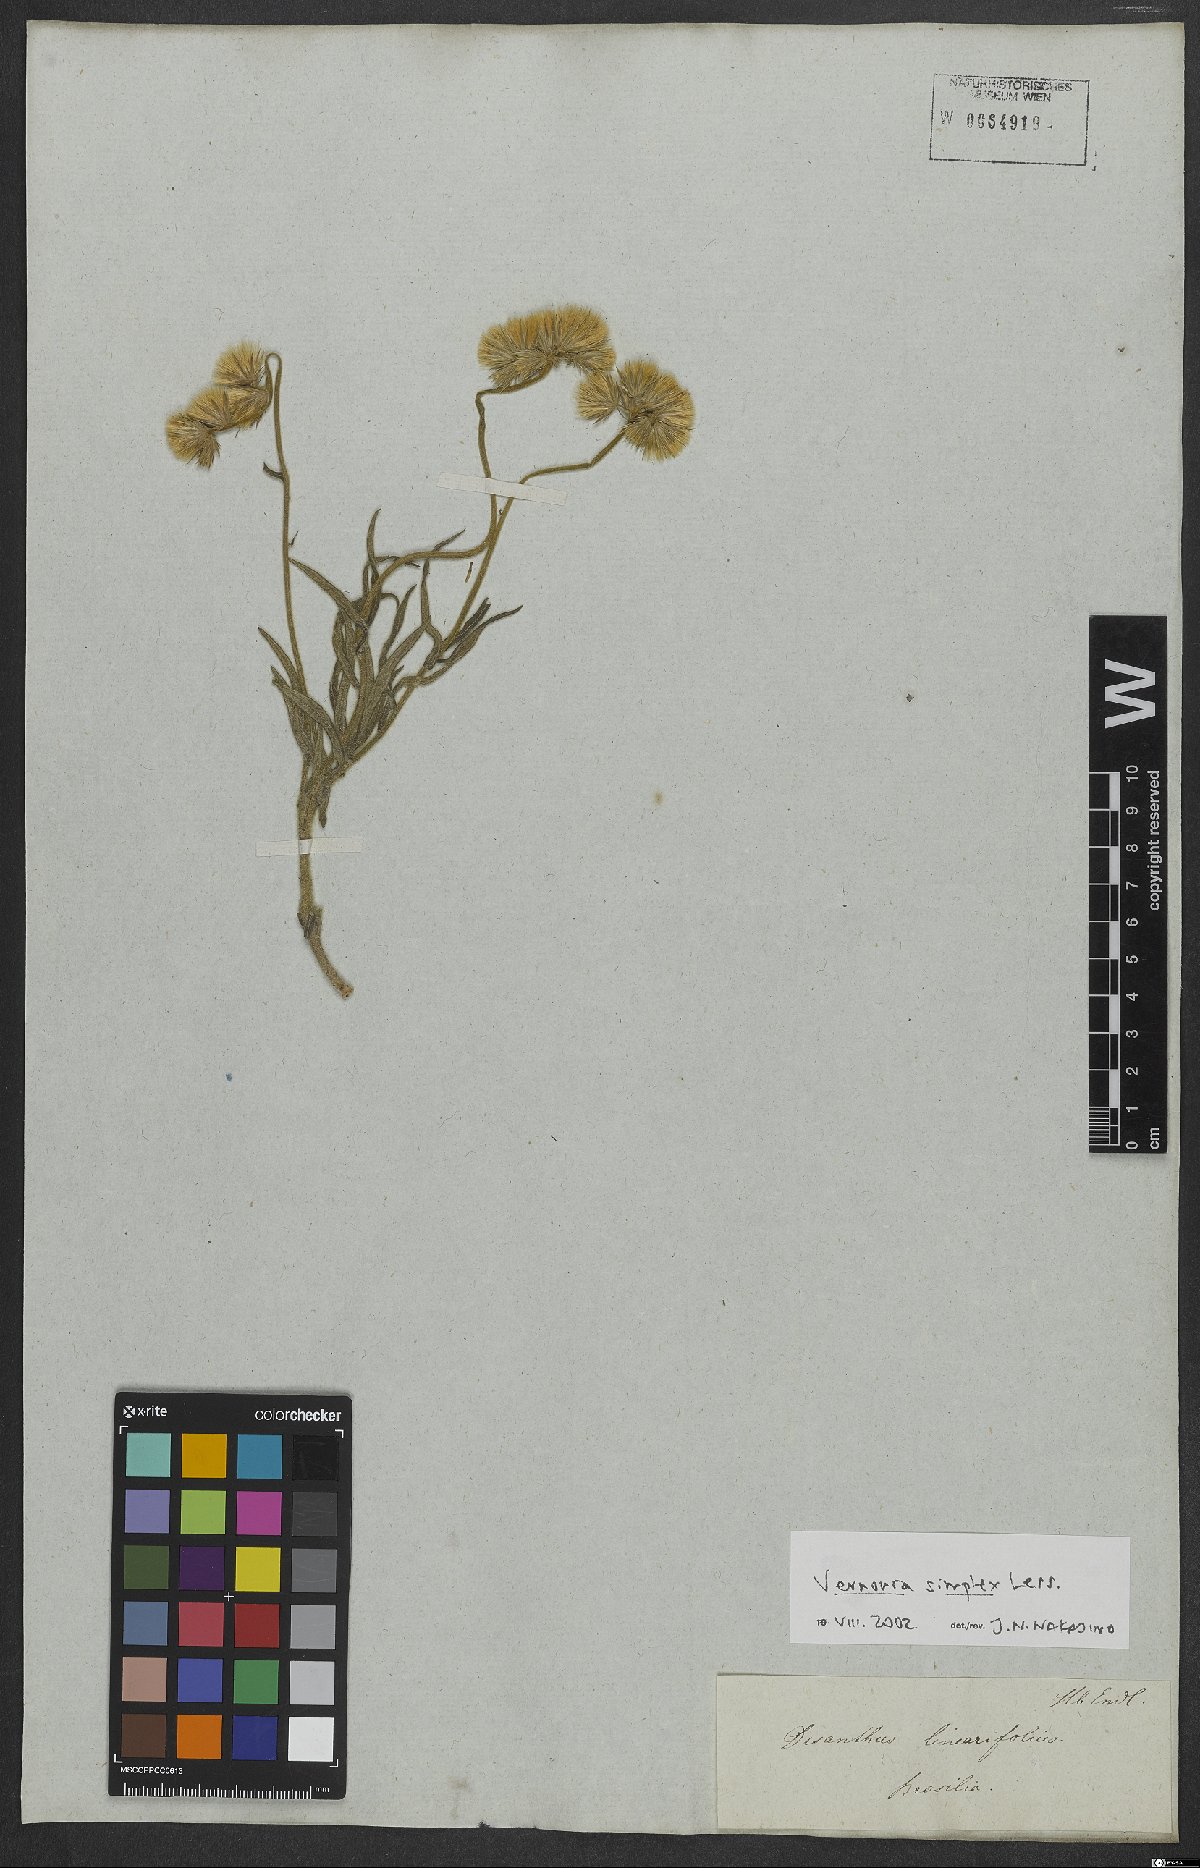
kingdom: Plantae
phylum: Tracheophyta
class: Magnoliopsida
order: Asterales
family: Asteraceae
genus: Chrysolaena
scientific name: Chrysolaena simplex
